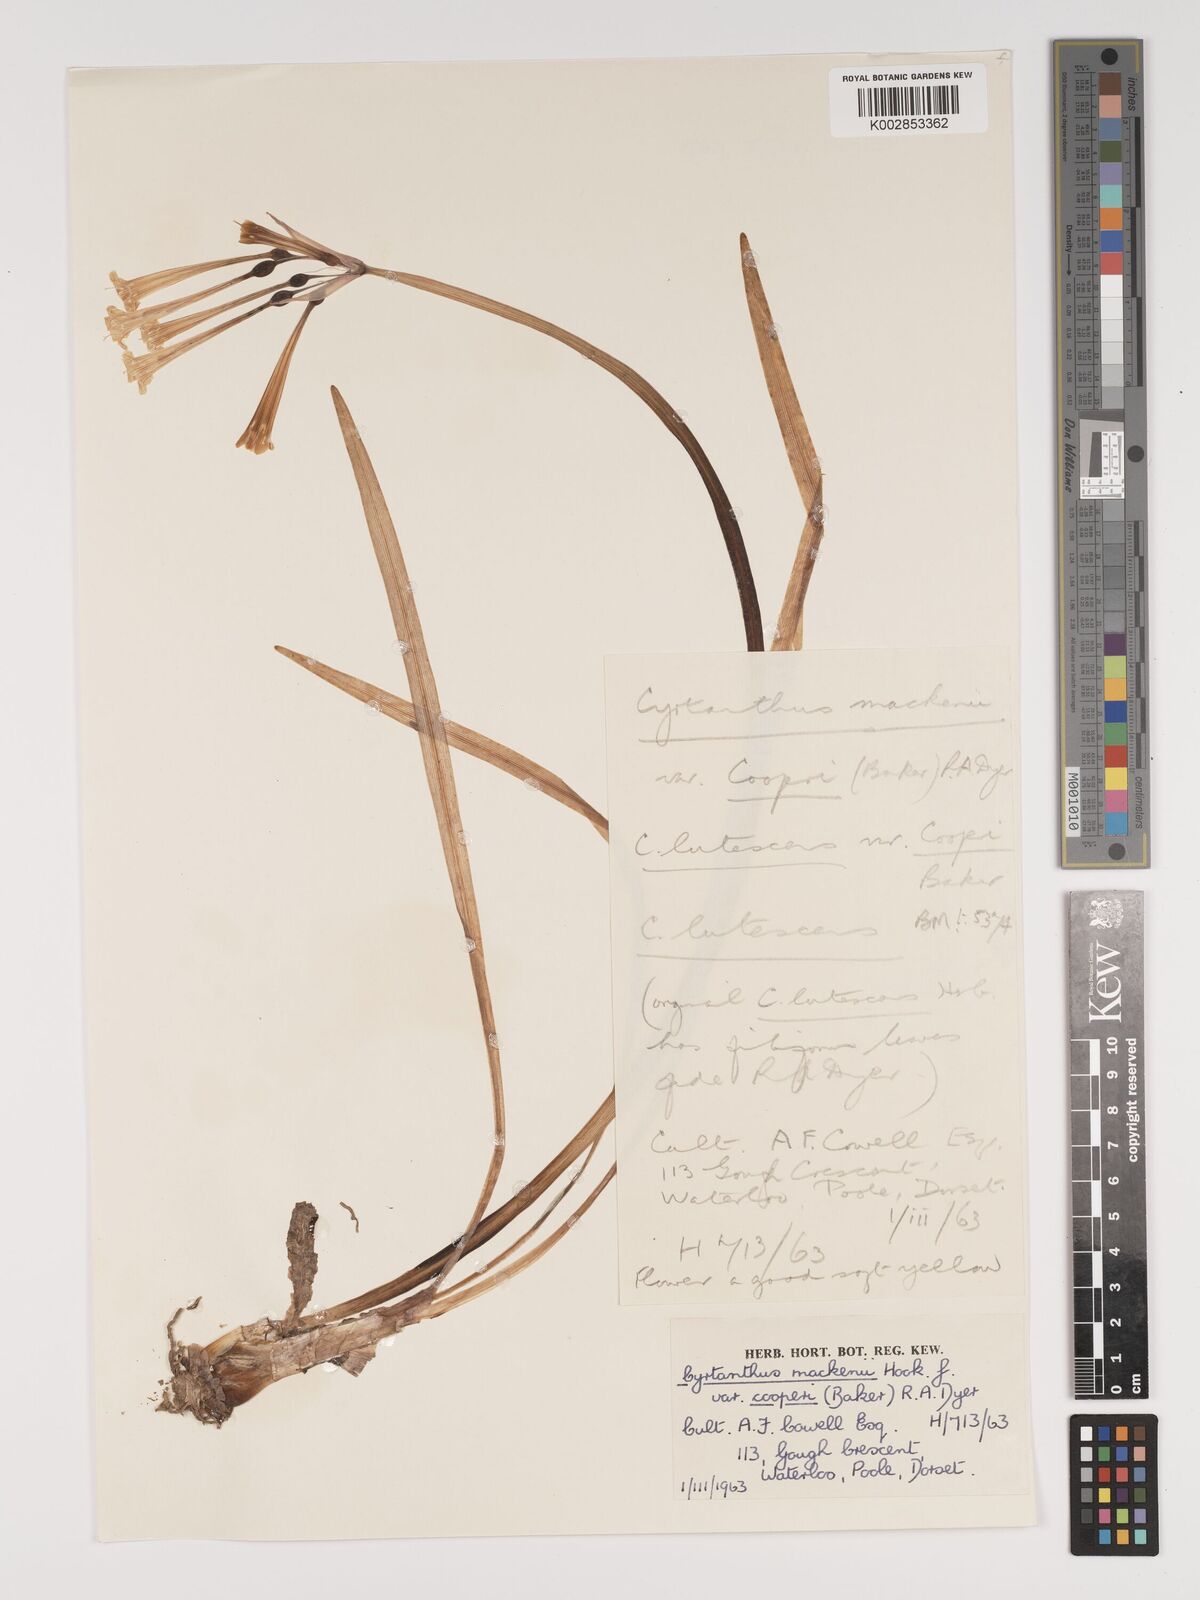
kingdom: Plantae
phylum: Tracheophyta
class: Liliopsida
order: Asparagales
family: Amaryllidaceae
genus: Cyrtanthus
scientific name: Cyrtanthus mackenii
